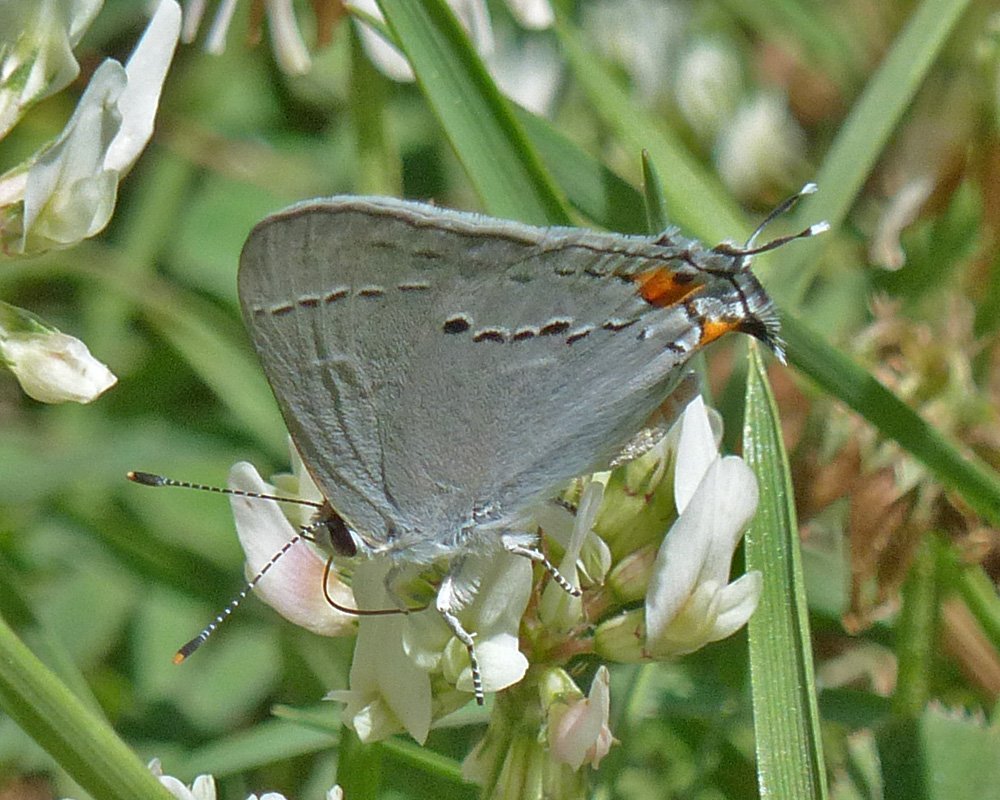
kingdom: Animalia
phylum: Arthropoda
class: Insecta
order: Lepidoptera
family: Lycaenidae
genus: Strymon
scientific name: Strymon melinus
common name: Gray Hairstreak
